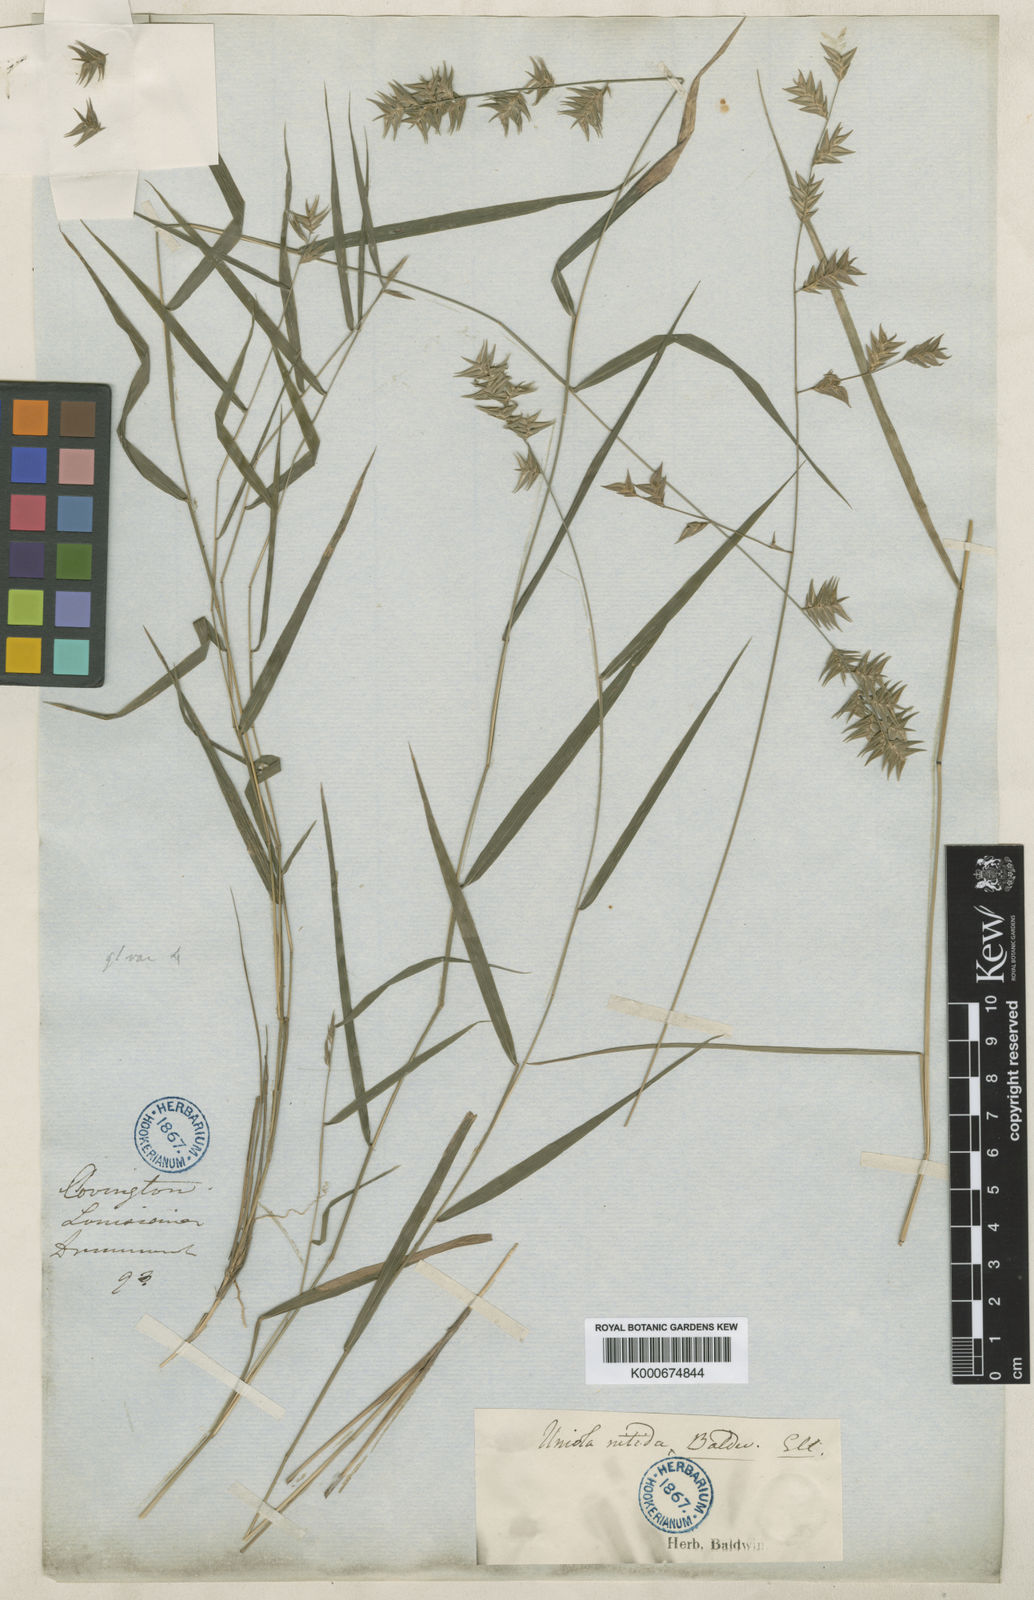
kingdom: Plantae
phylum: Tracheophyta
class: Liliopsida
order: Poales
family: Poaceae
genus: Uniola
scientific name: Uniola
